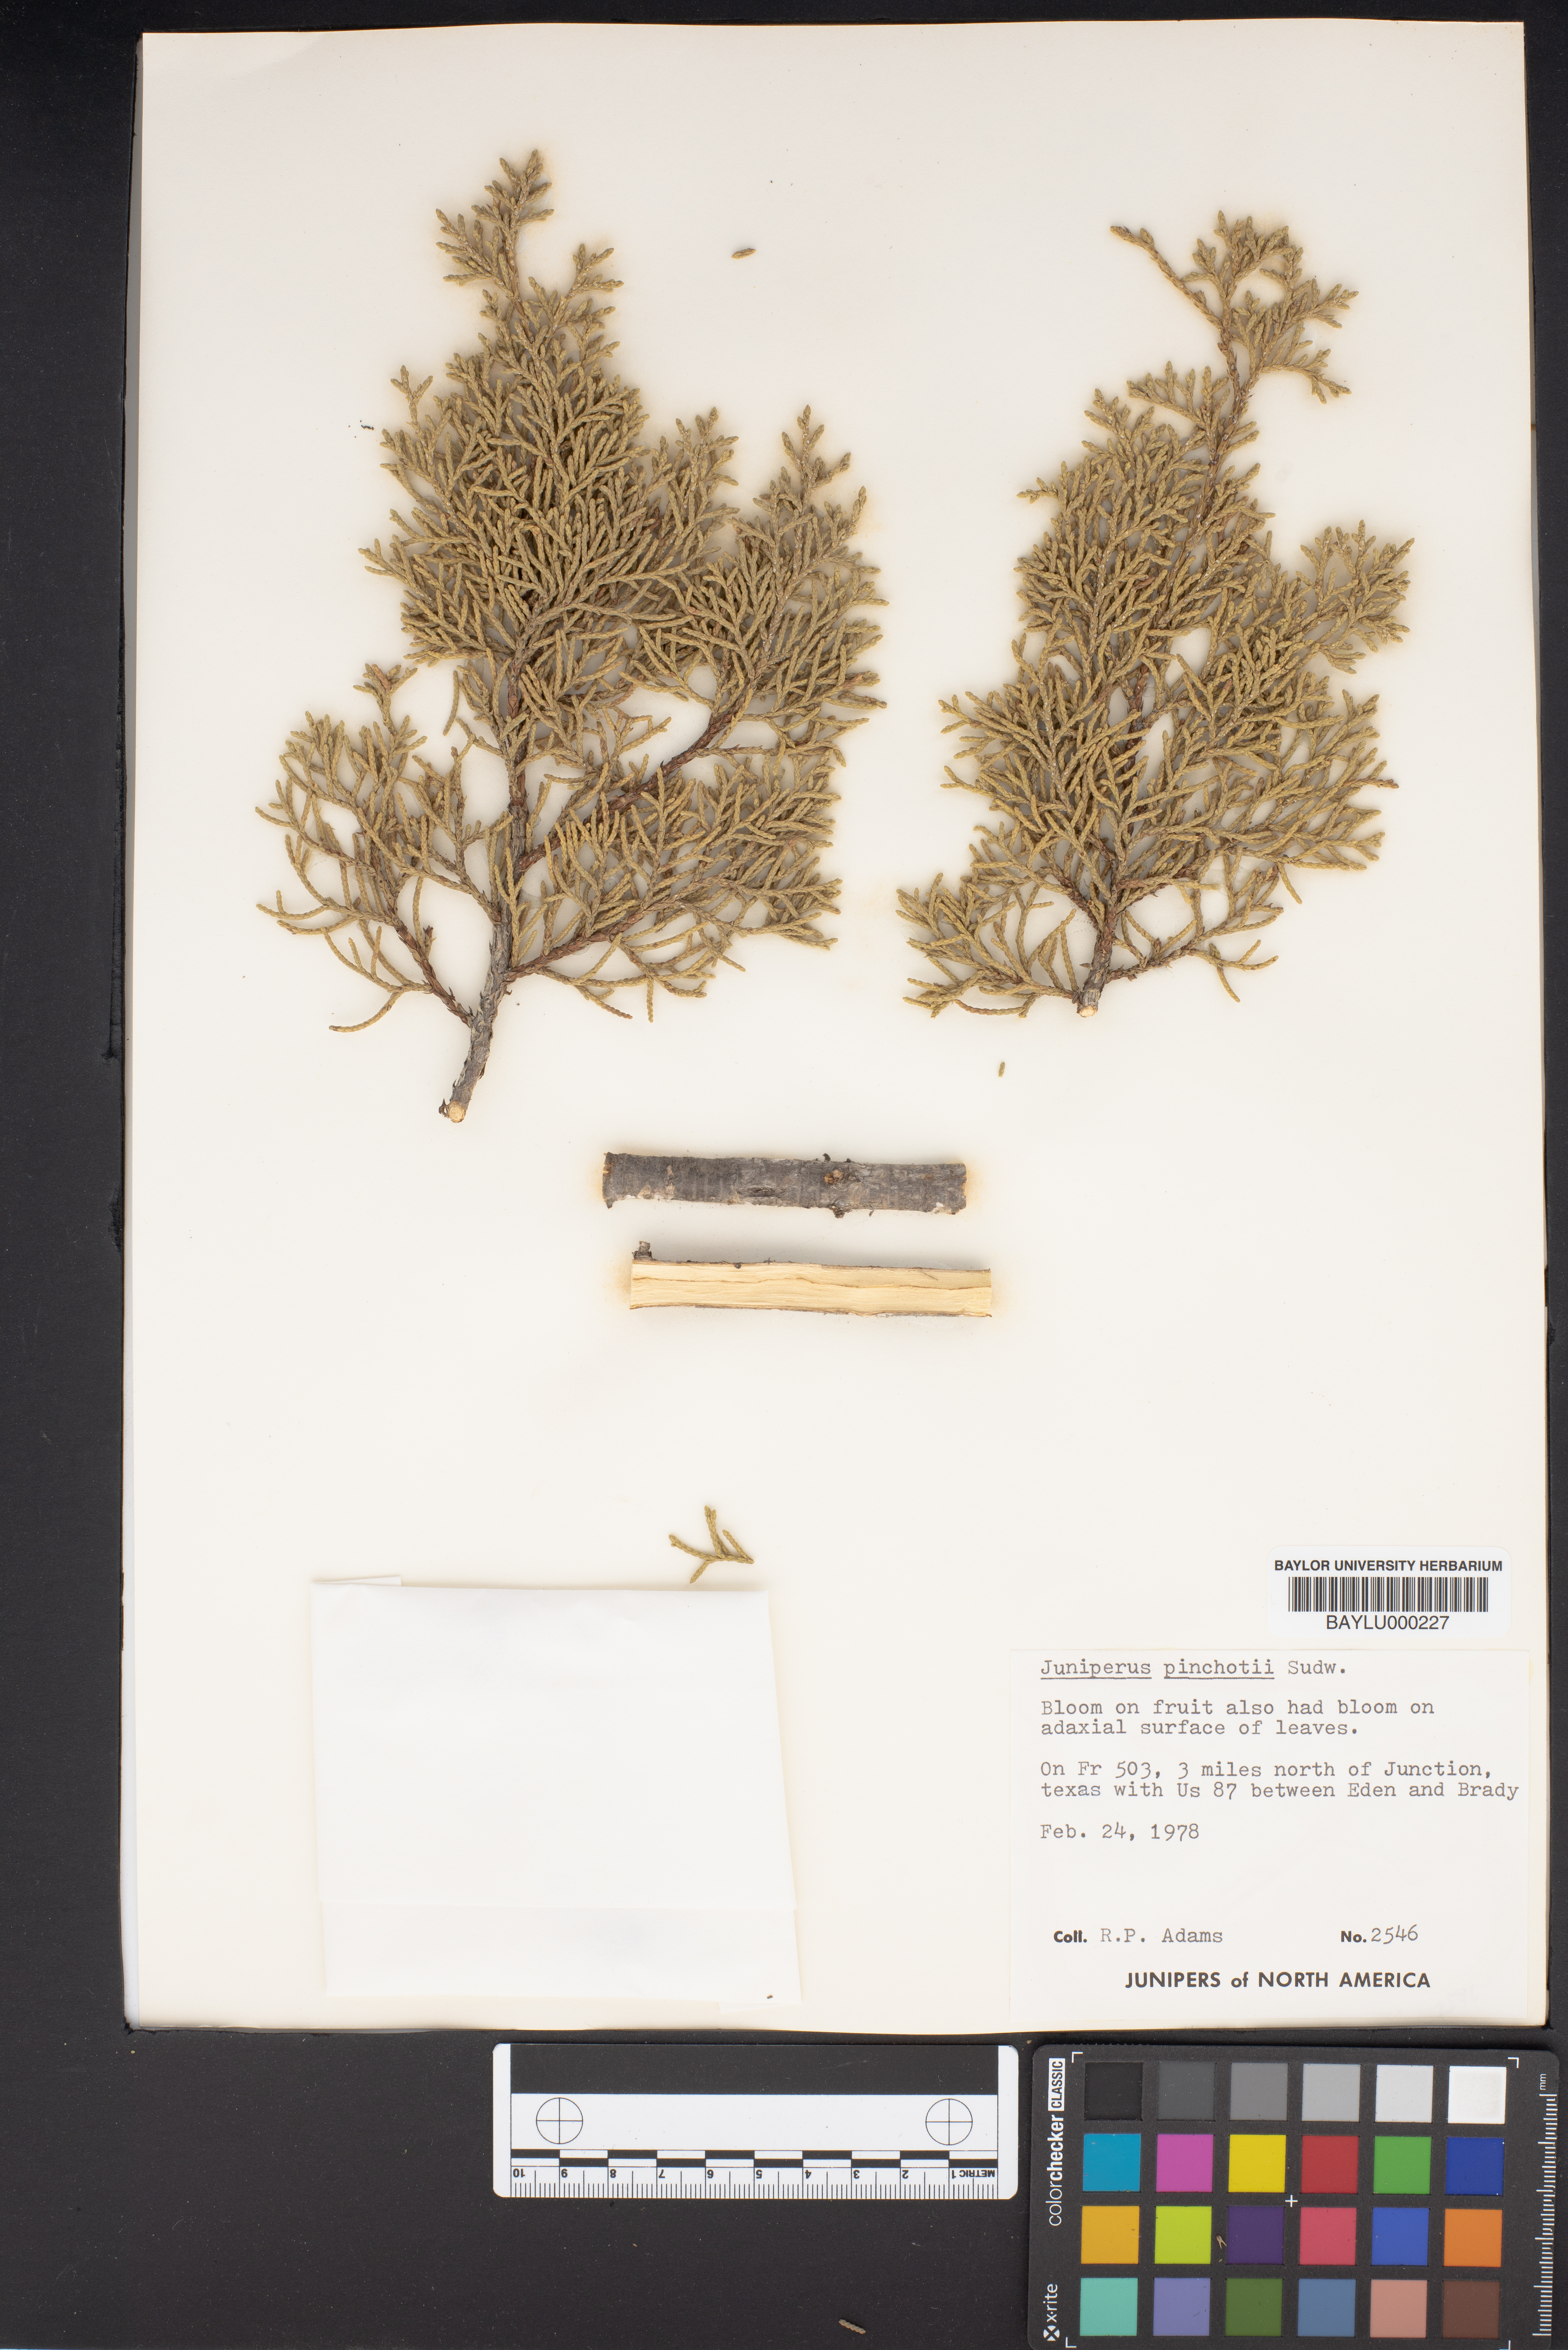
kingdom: Plantae
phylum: Tracheophyta
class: Pinopsida
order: Pinales
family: Cupressaceae
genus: Juniperus
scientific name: Juniperus pinchotii
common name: Pinchot juniper
